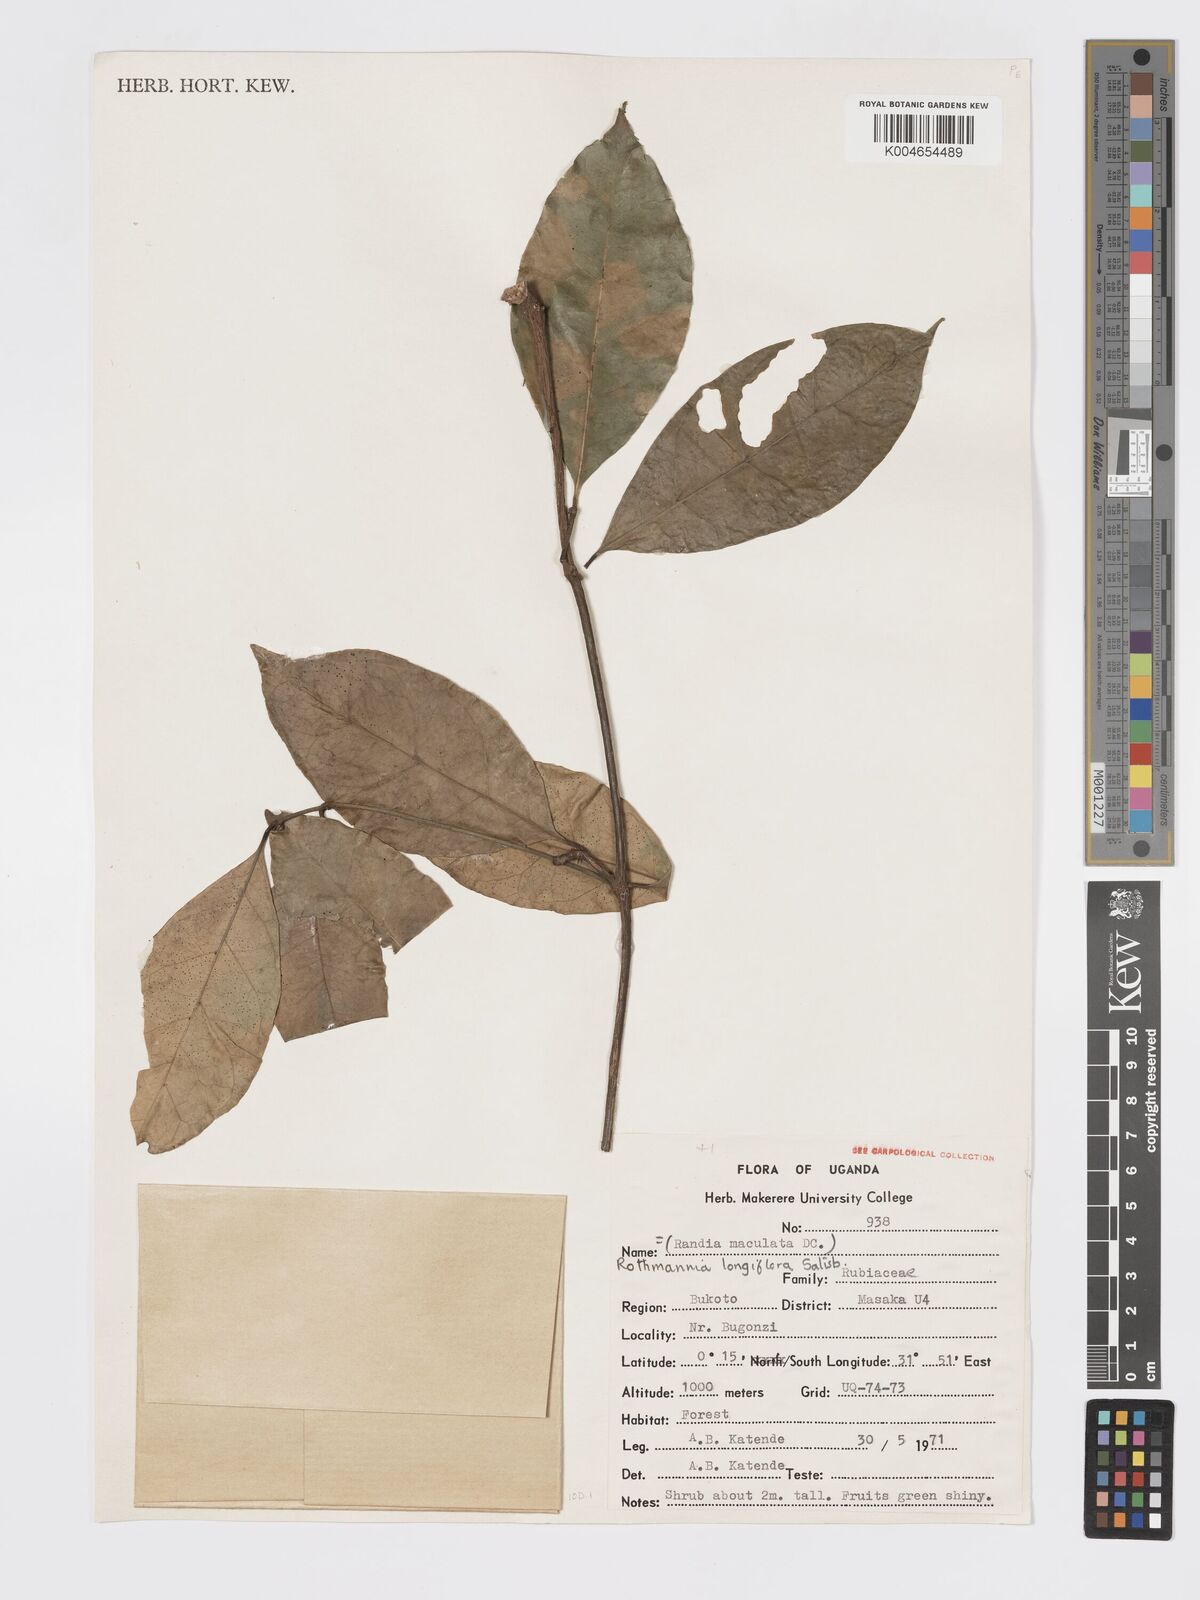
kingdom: Plantae
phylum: Tracheophyta
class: Magnoliopsida
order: Gentianales
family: Rubiaceae
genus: Rothmannia
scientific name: Rothmannia longiflora
